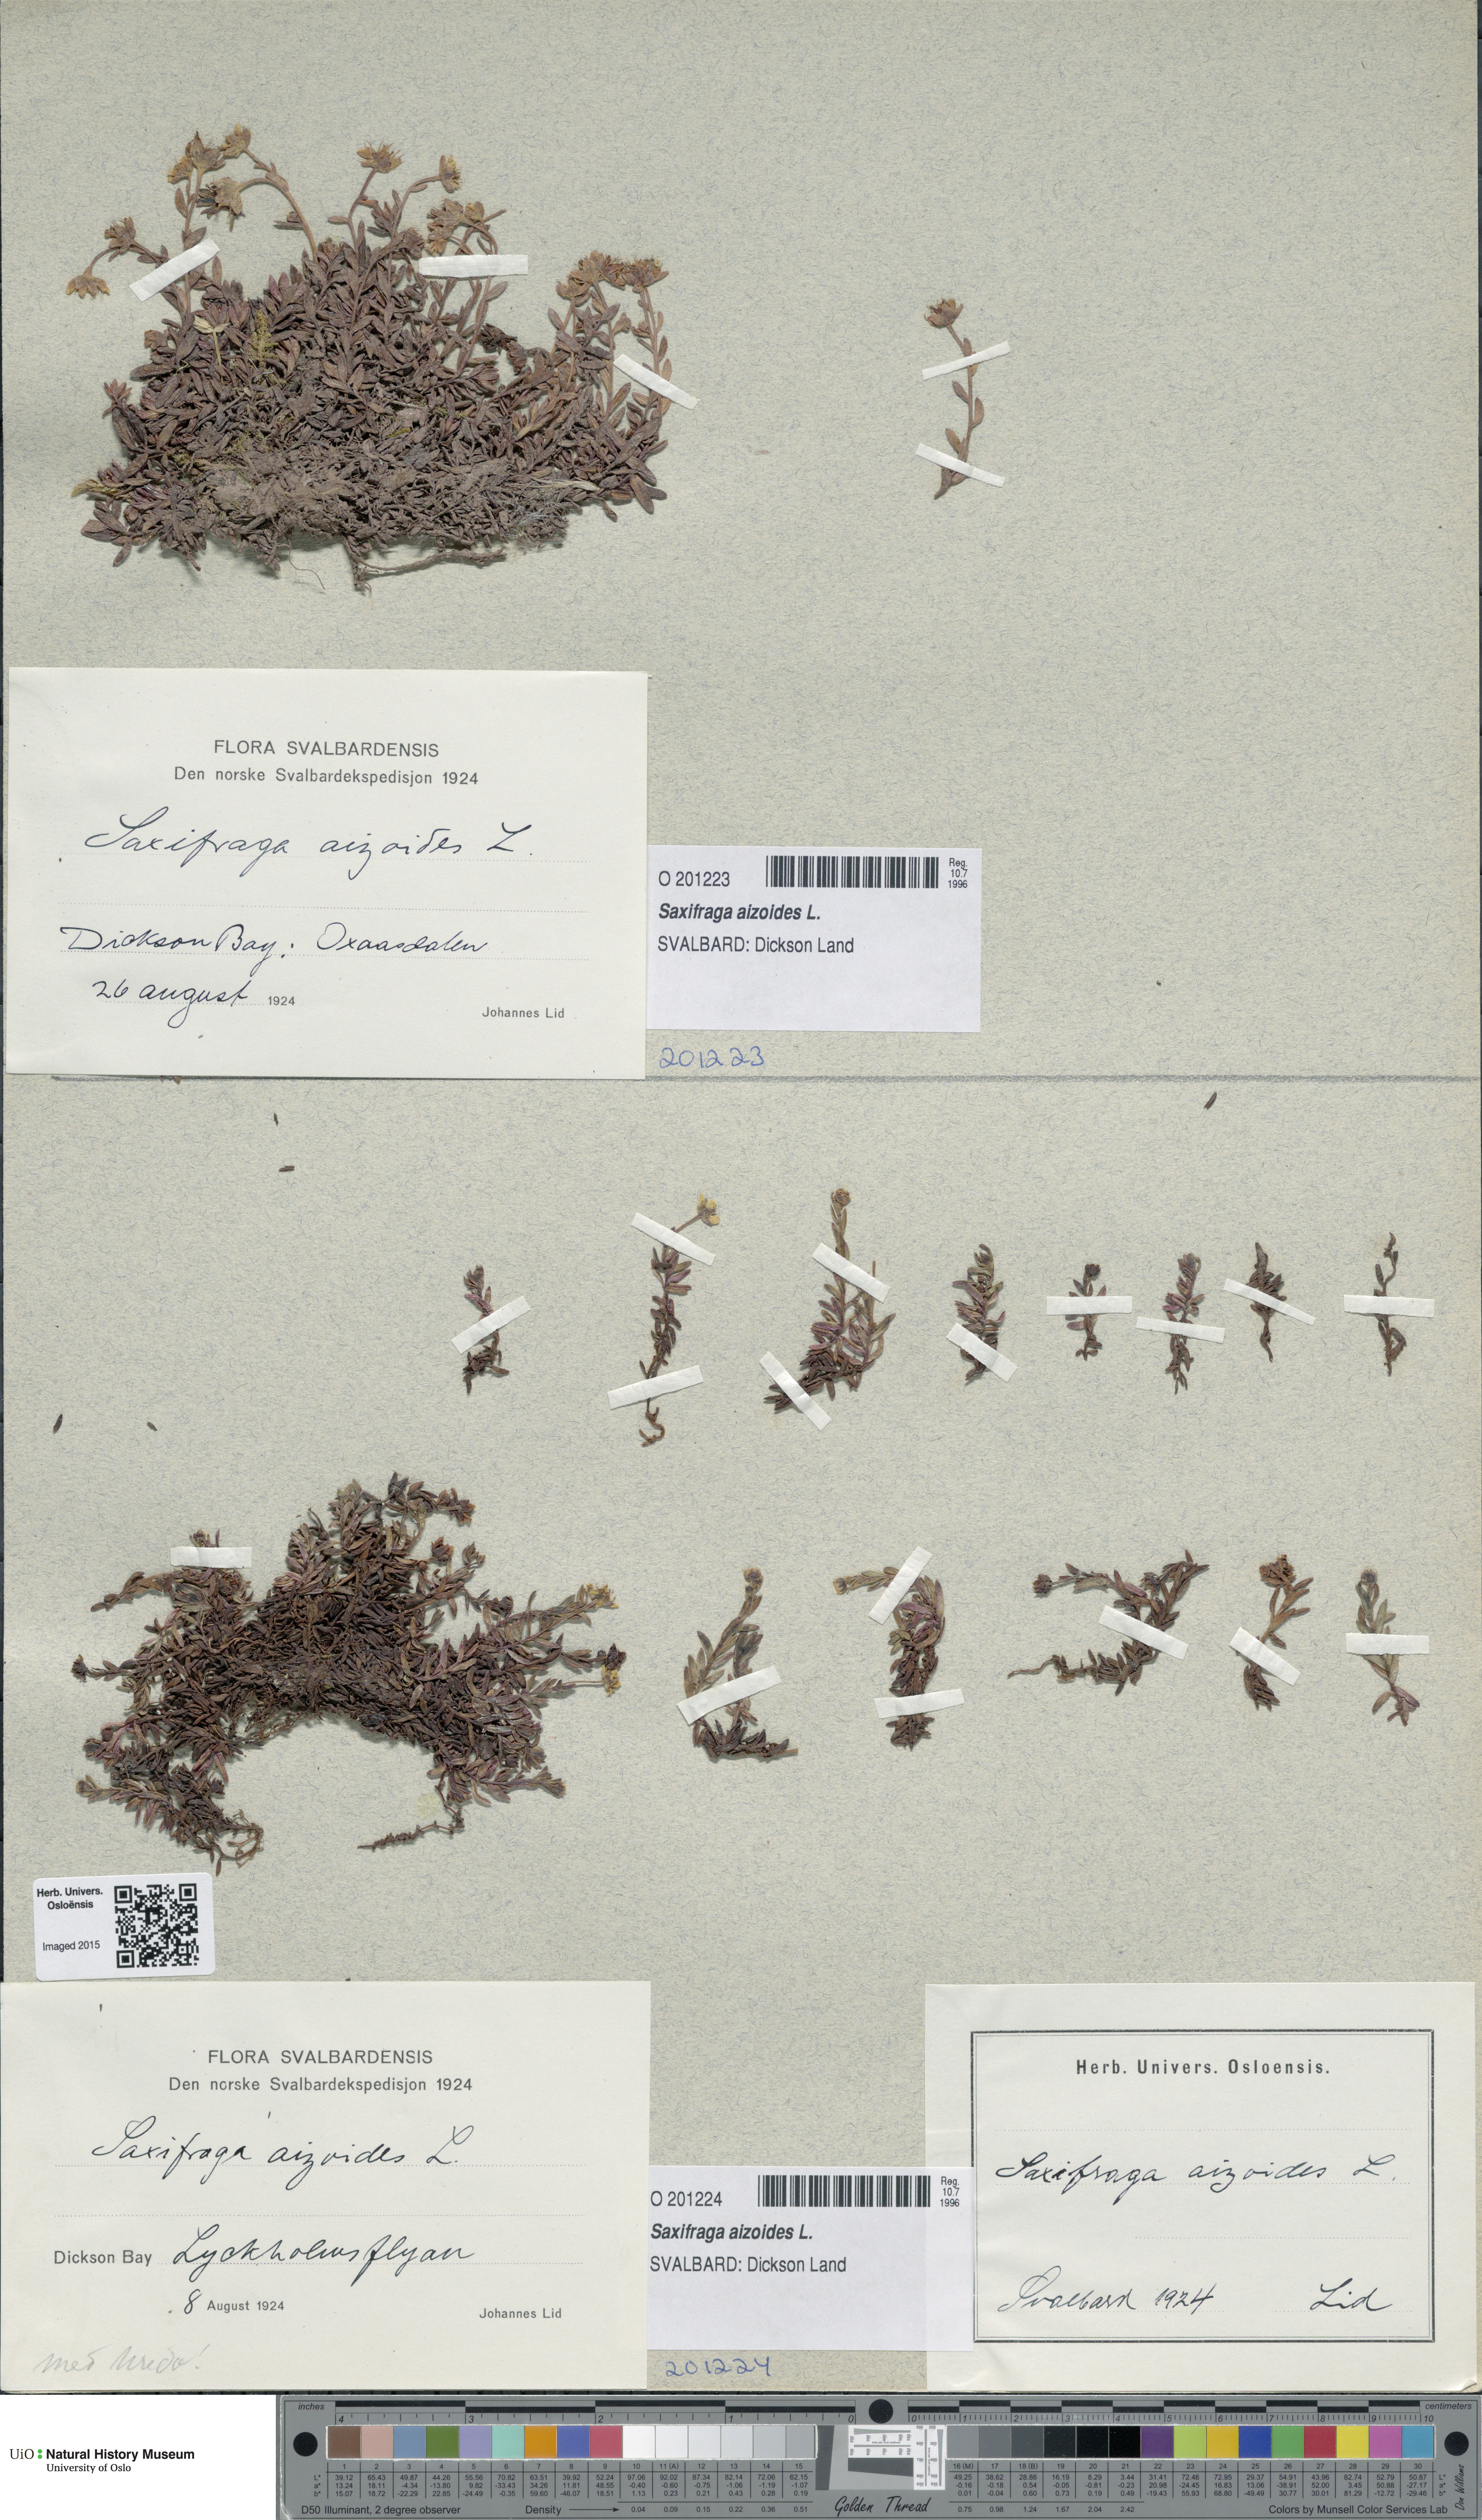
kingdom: Plantae
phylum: Tracheophyta
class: Magnoliopsida
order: Saxifragales
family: Saxifragaceae
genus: Saxifraga
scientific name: Saxifraga aizoides
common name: Yellow mountain saxifrage
